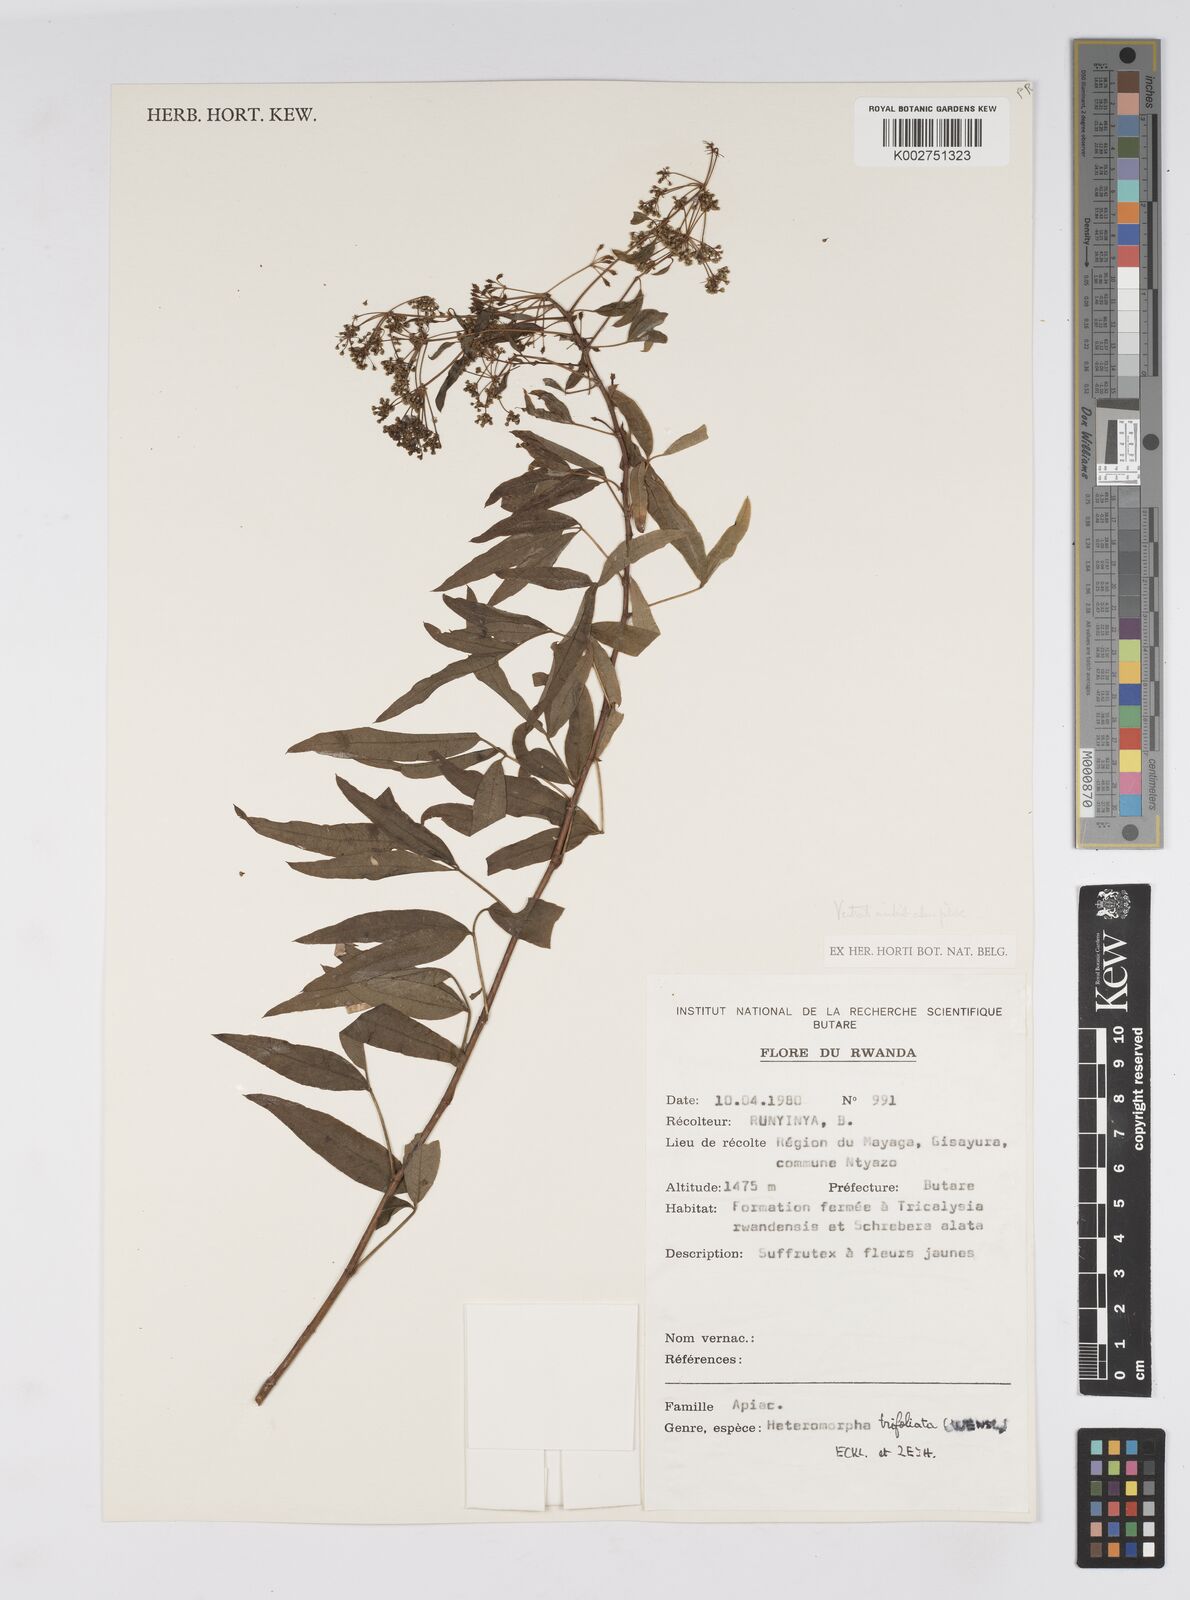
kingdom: Plantae
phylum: Tracheophyta
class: Magnoliopsida
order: Apiales
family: Apiaceae
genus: Heteromorpha
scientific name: Heteromorpha arborescens
